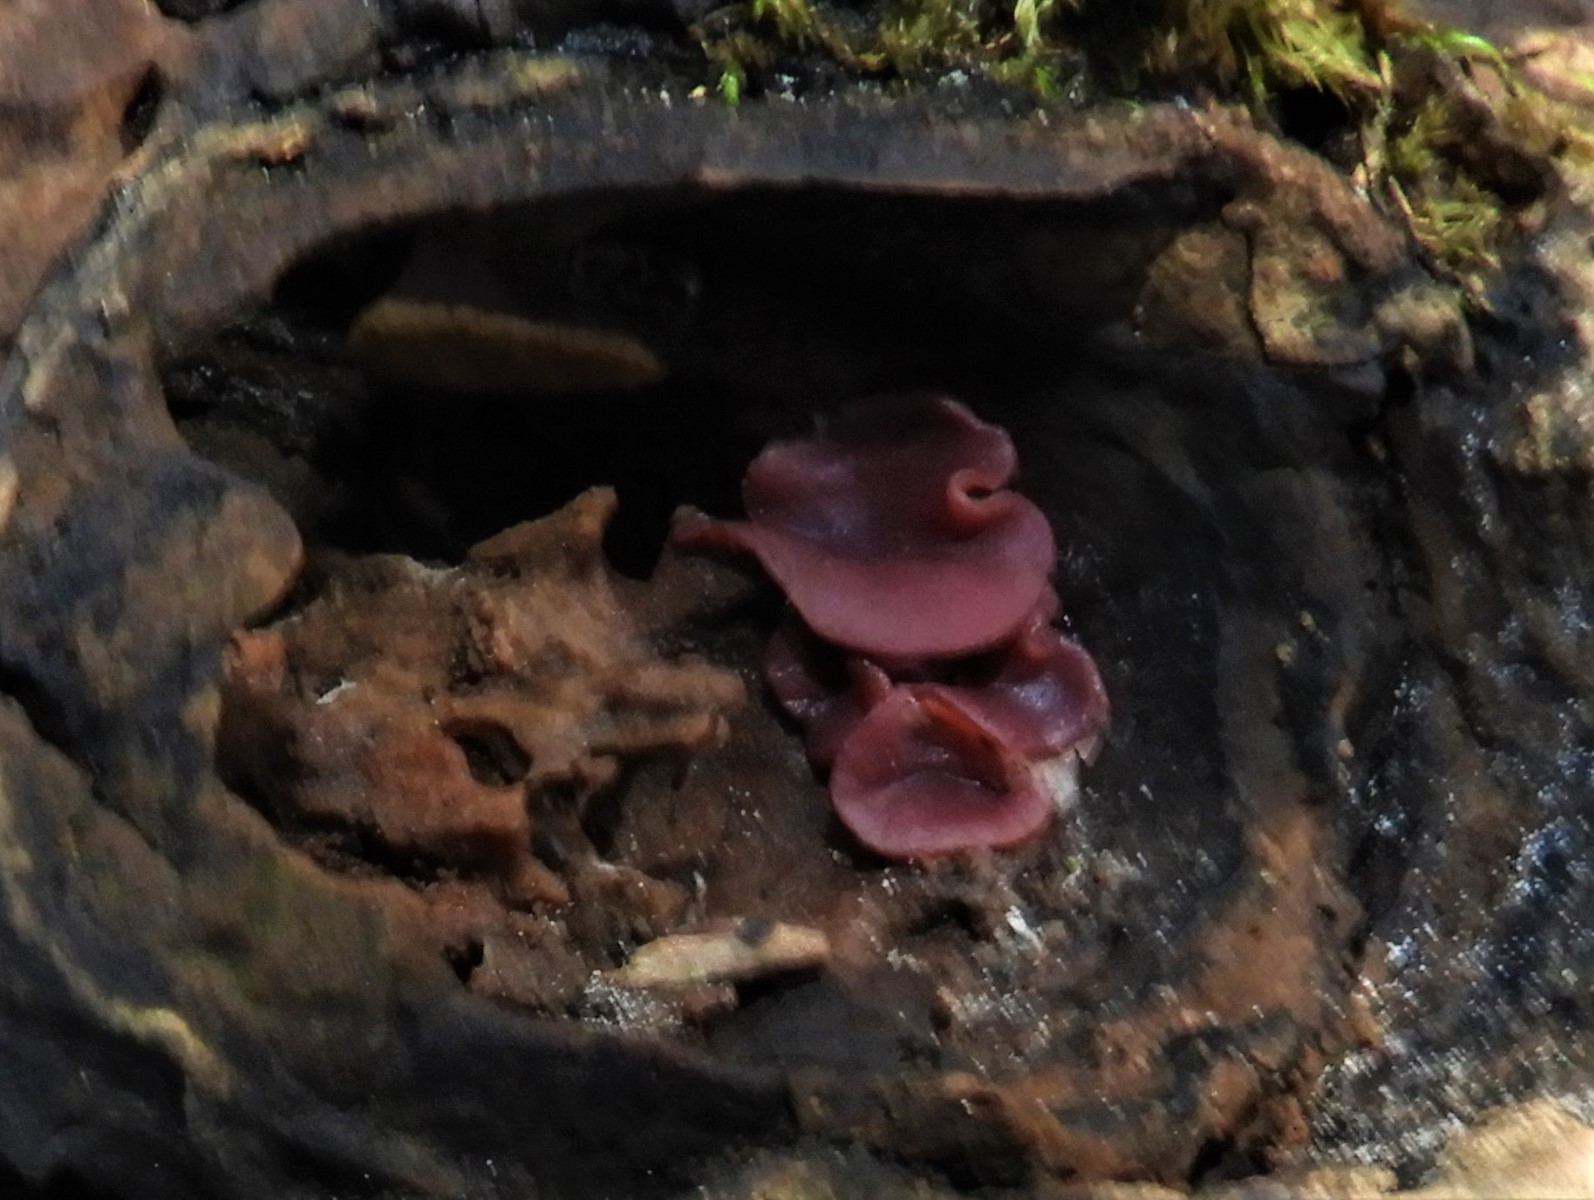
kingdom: Fungi
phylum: Ascomycota
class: Leotiomycetes
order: Helotiales
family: Gelatinodiscaceae
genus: Ascocoryne
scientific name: Ascocoryne cylichnium
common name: stor sejskive
